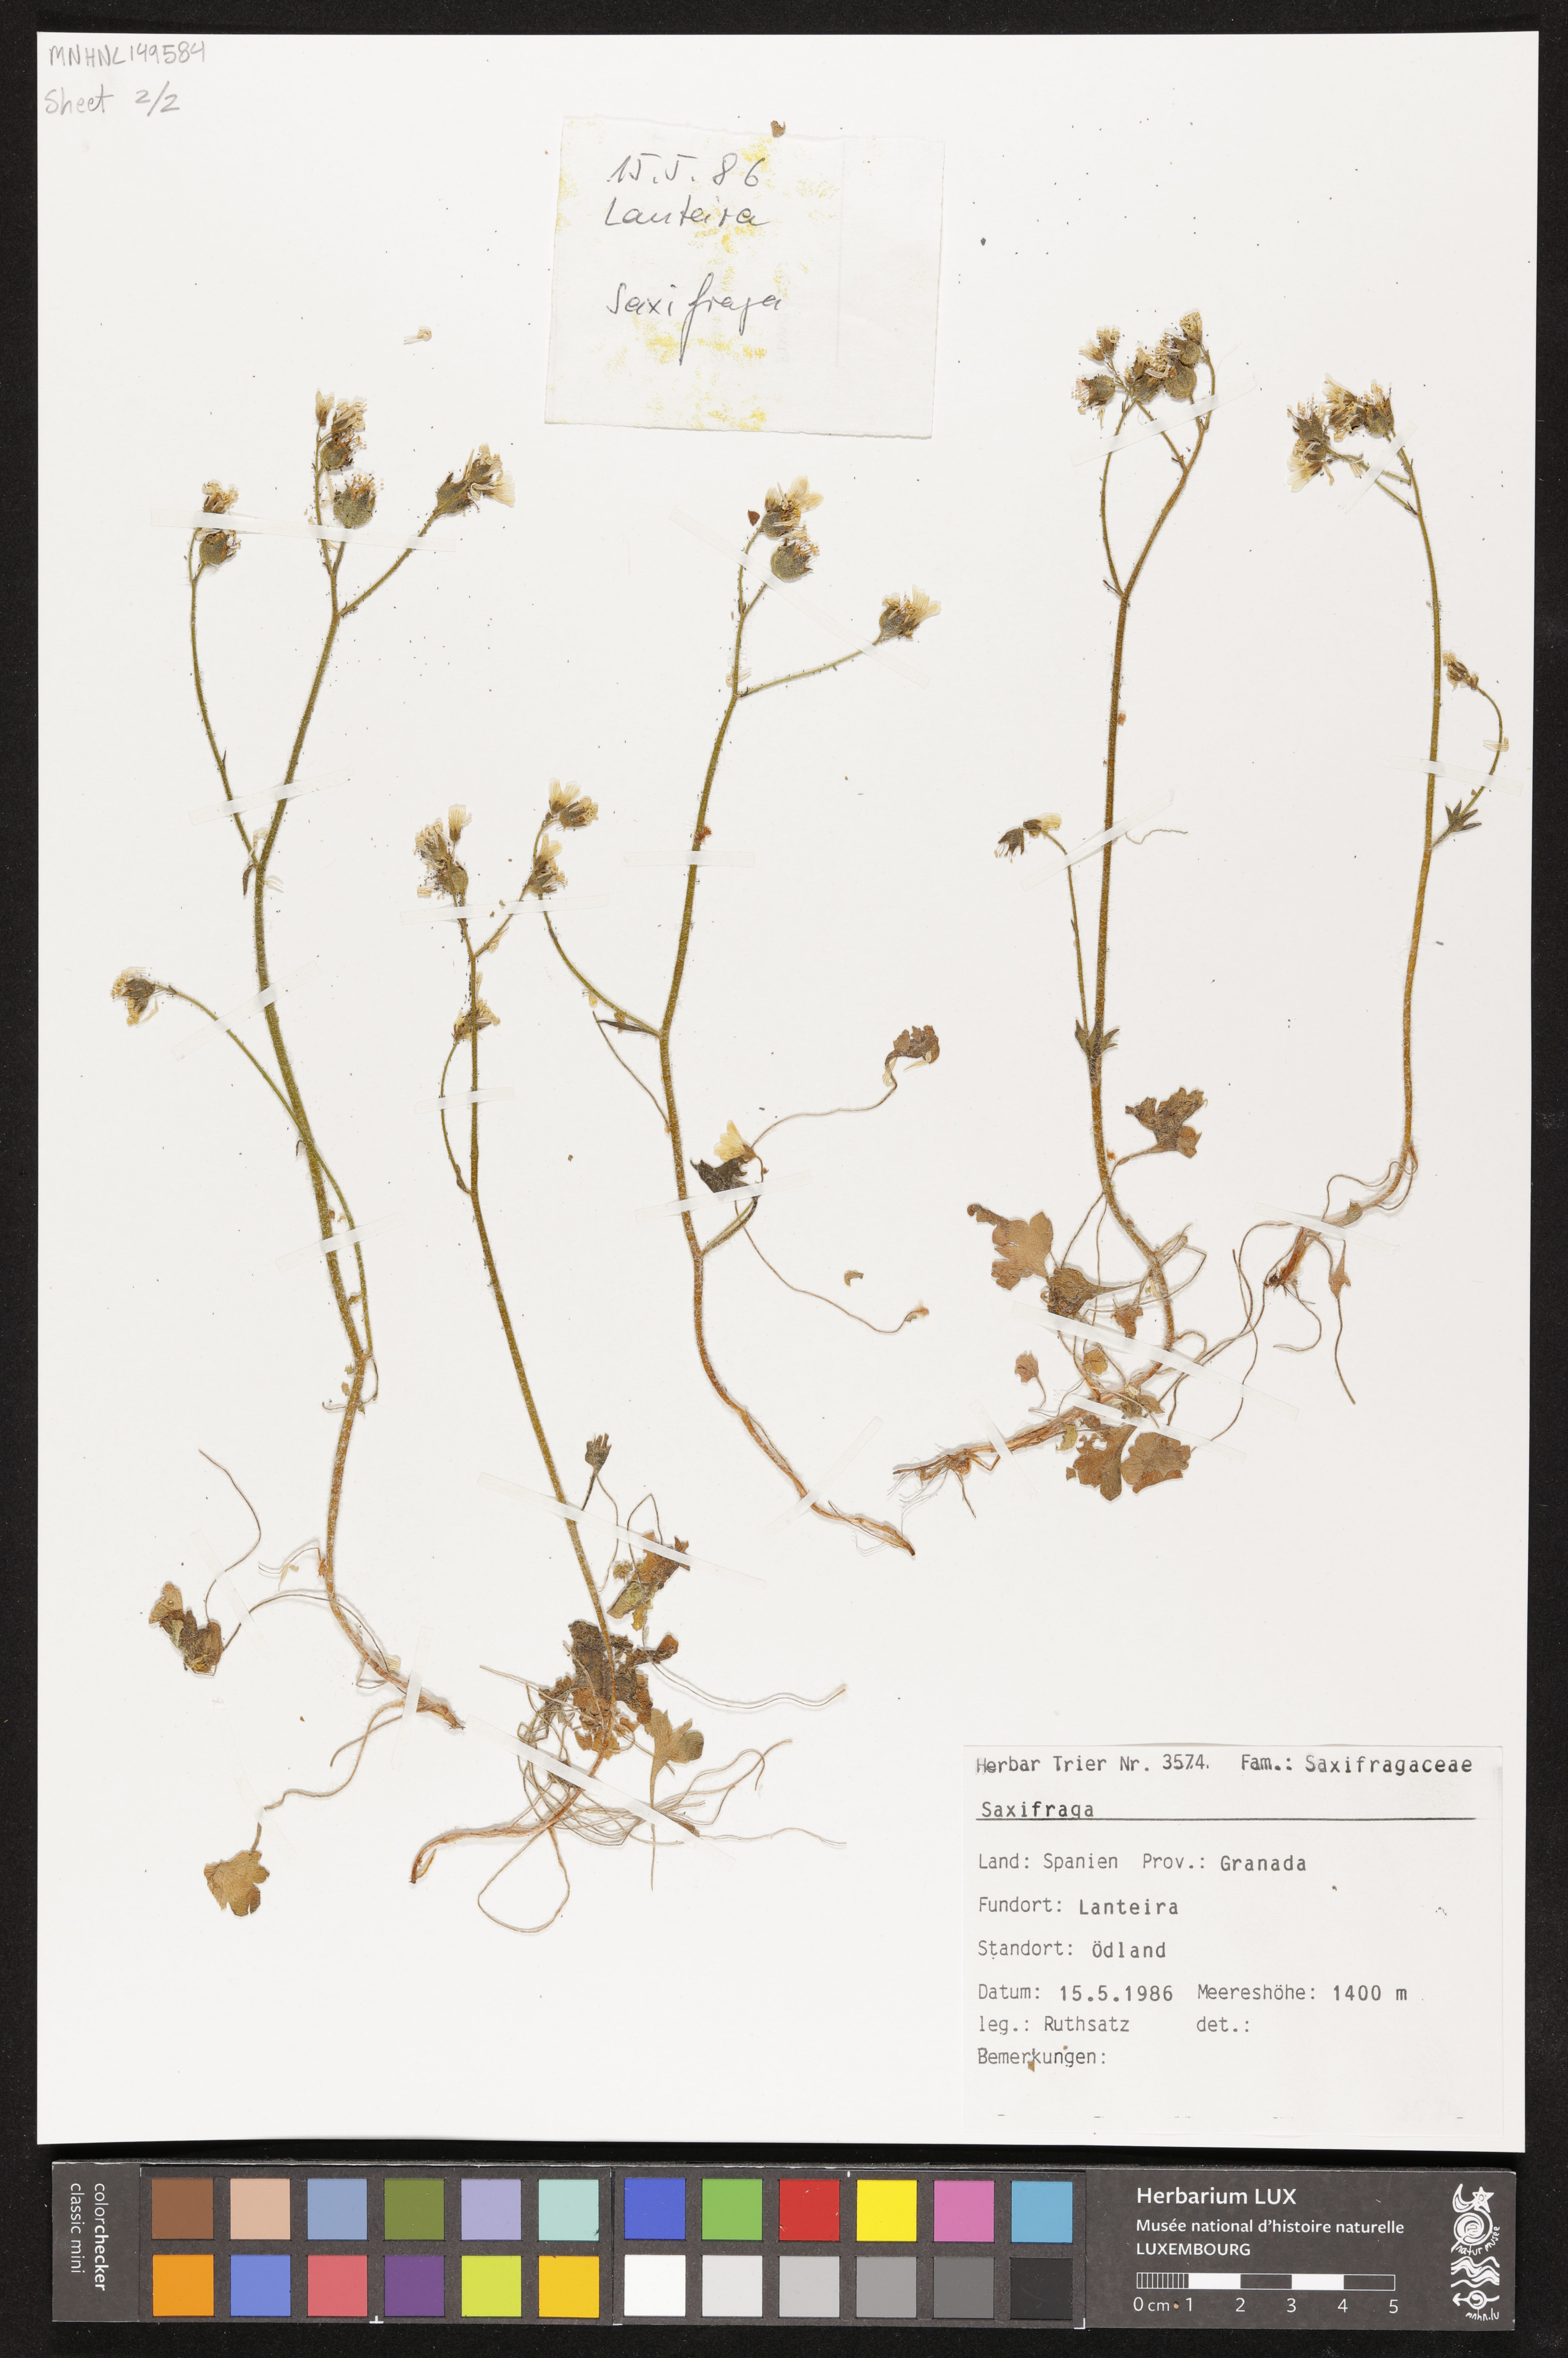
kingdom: Plantae
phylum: Tracheophyta
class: Magnoliopsida
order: Saxifragales
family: Saxifragaceae
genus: Saxifraga
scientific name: Saxifraga granulata
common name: Meadow saxifrage
